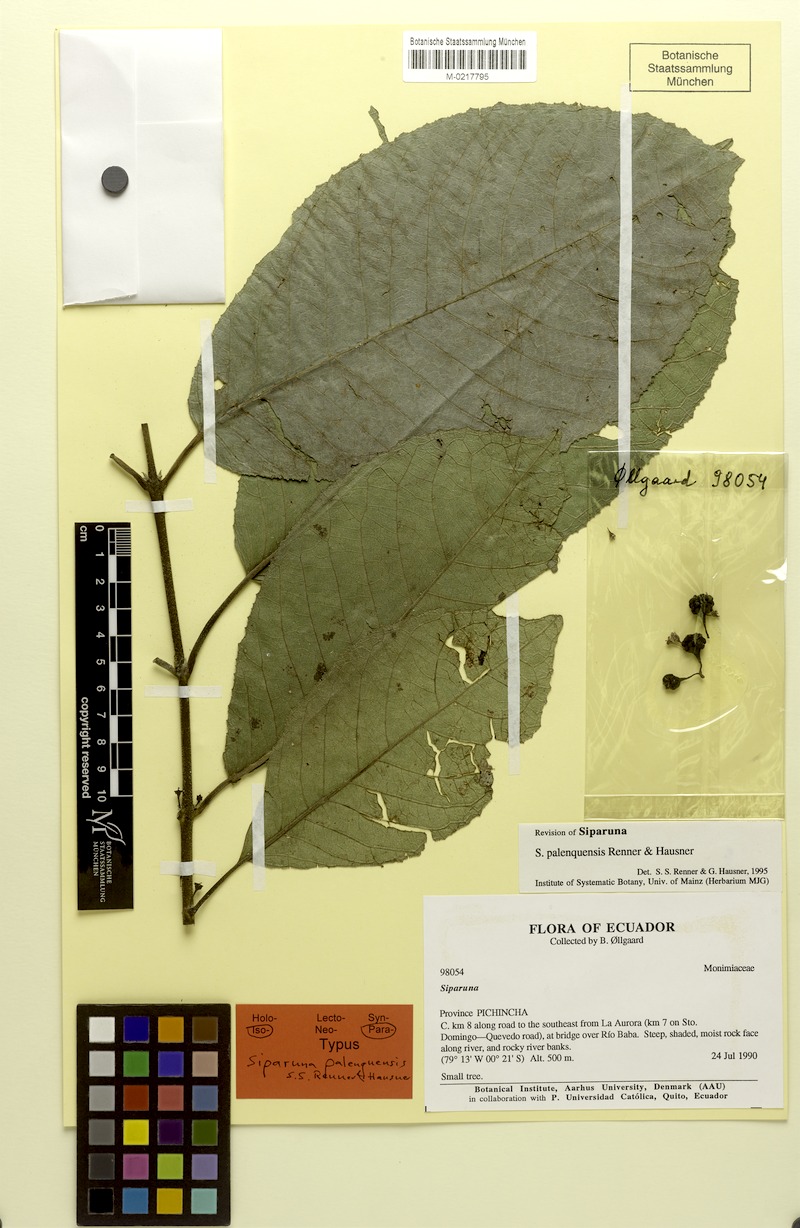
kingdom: Plantae
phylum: Tracheophyta
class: Magnoliopsida
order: Laurales
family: Siparunaceae
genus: Siparuna
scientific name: Siparuna palenquensis
